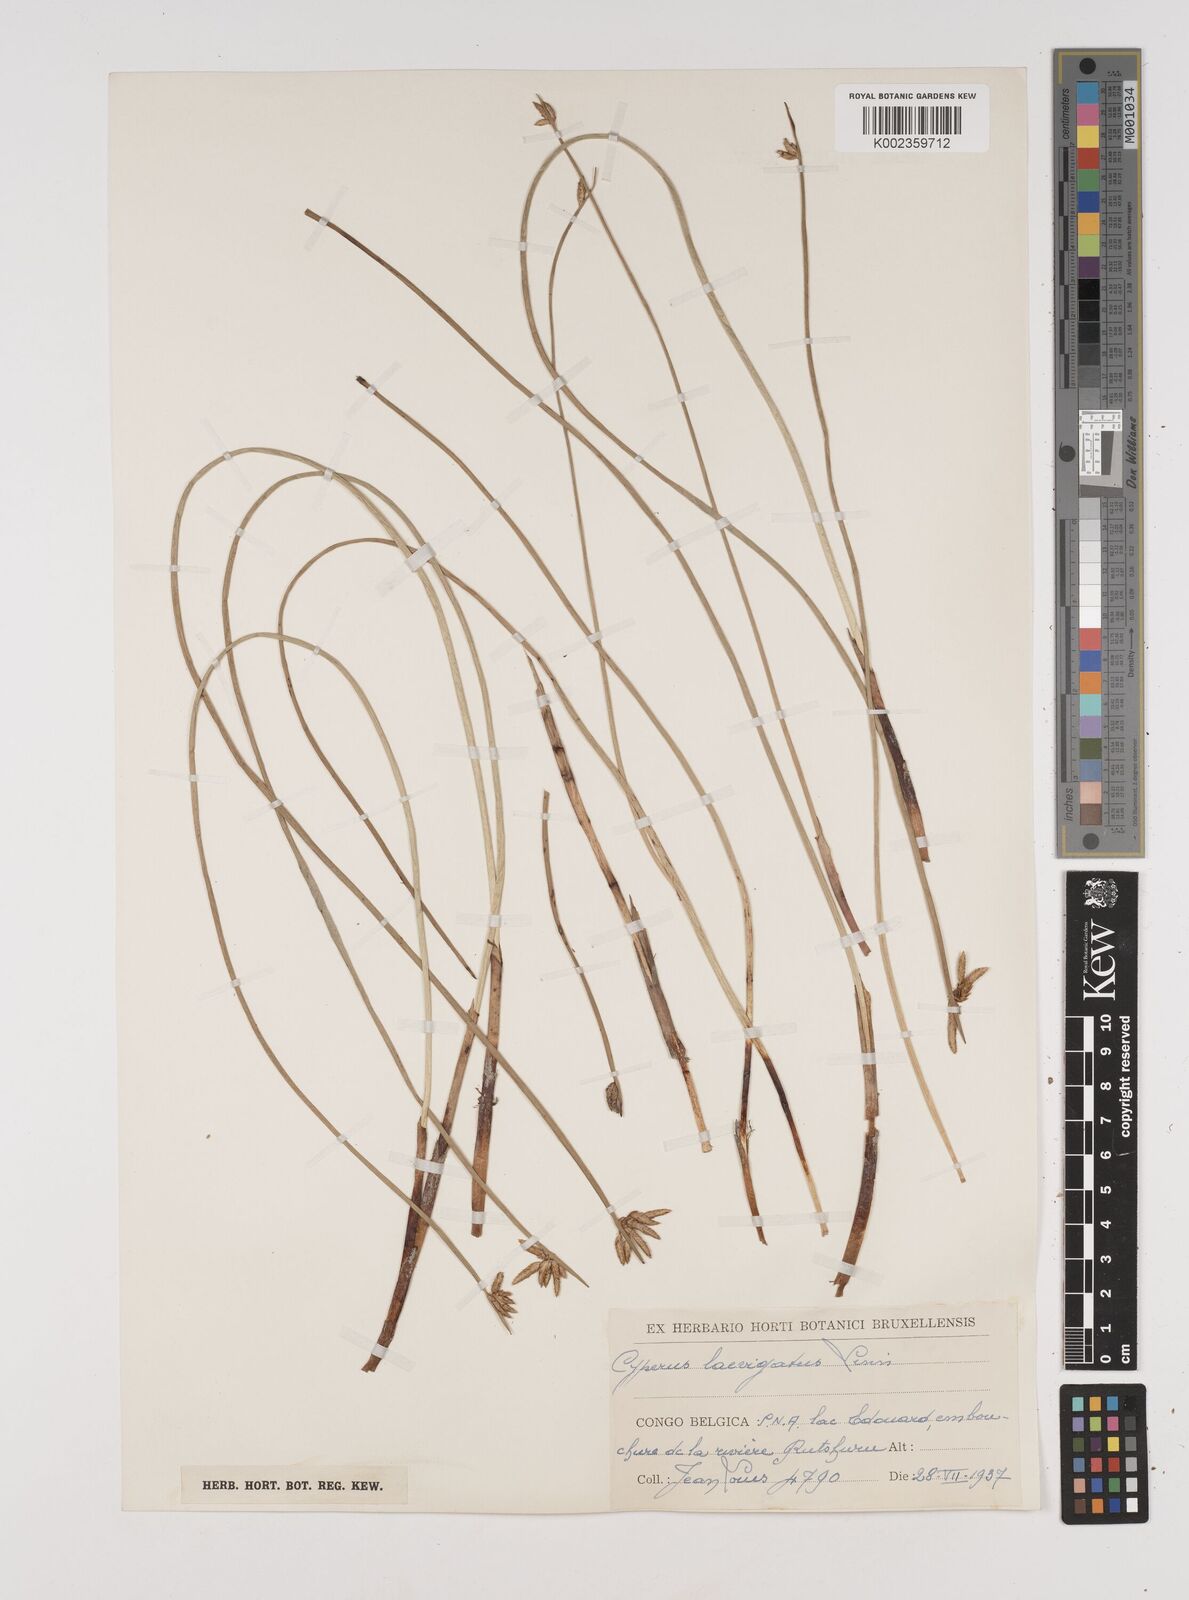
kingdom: Plantae
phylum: Tracheophyta
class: Liliopsida
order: Poales
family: Cyperaceae
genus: Cyperus
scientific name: Cyperus laevigatus
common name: Smooth flat sedge
